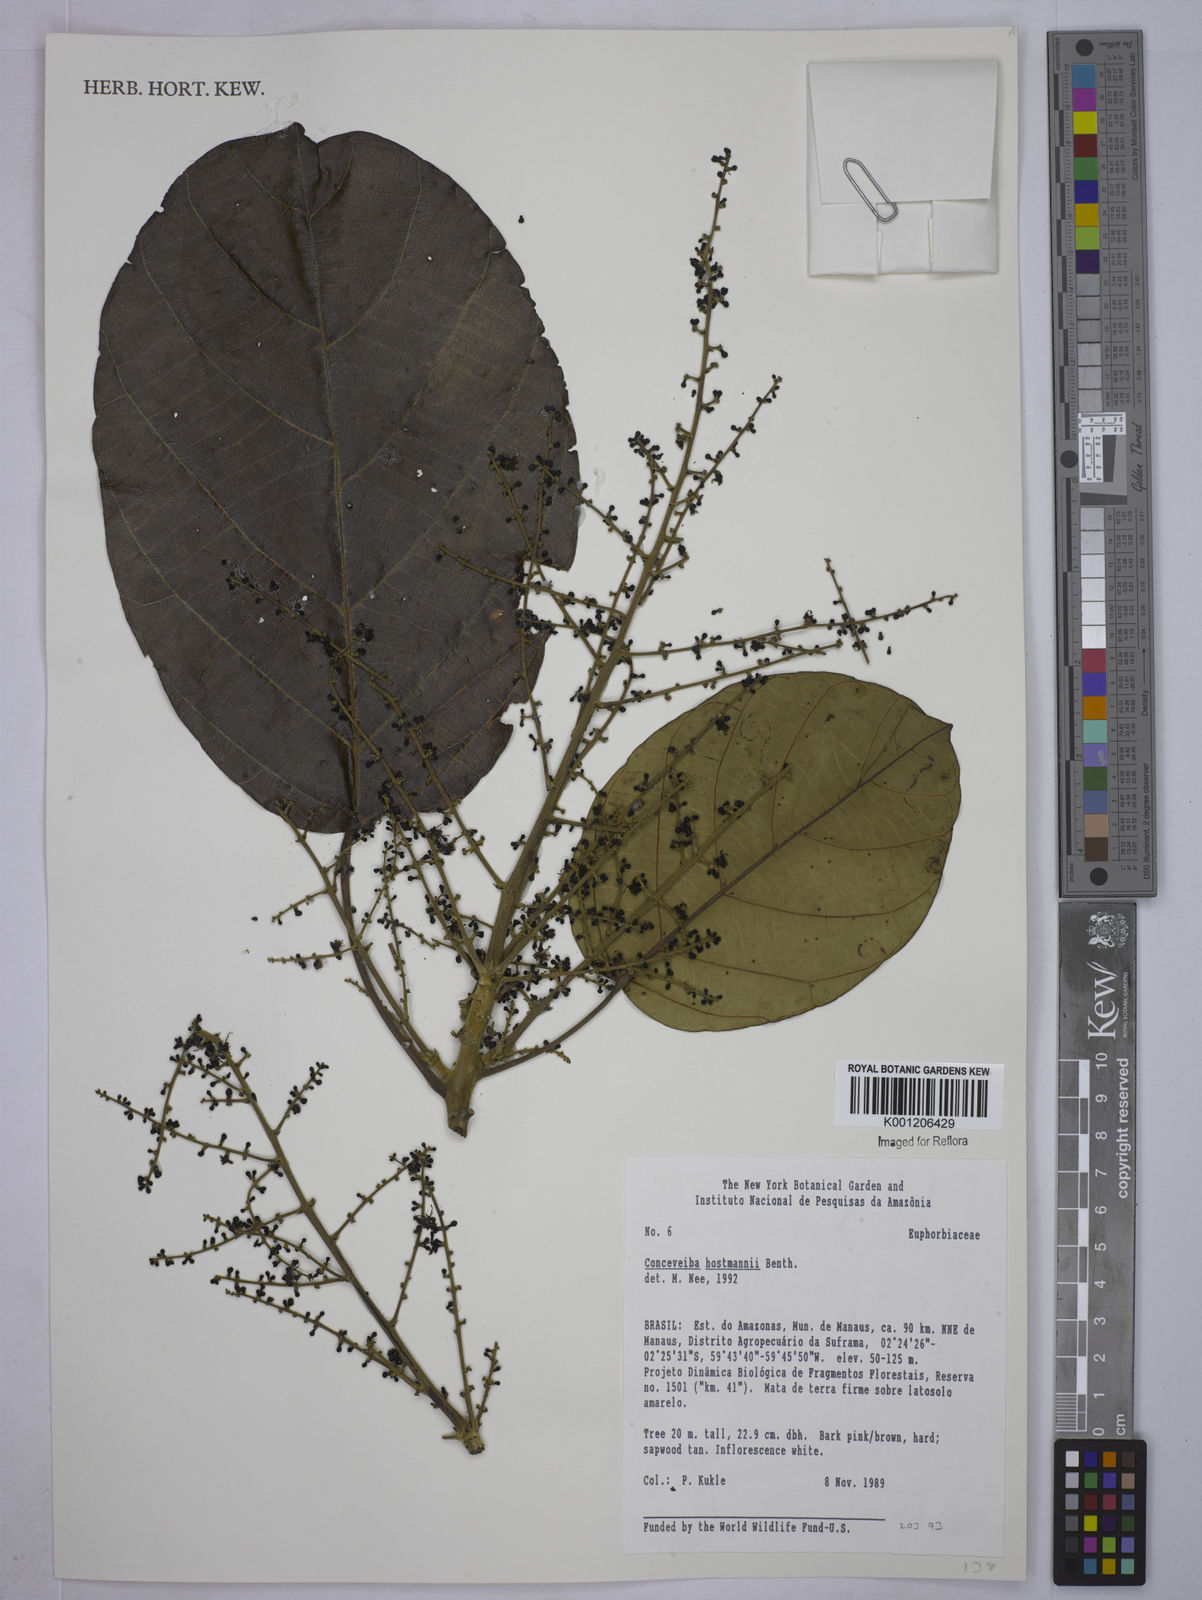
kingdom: Plantae
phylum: Tracheophyta
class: Magnoliopsida
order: Malpighiales
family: Euphorbiaceae
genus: Conceveiba
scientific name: Conceveiba hostmanii
